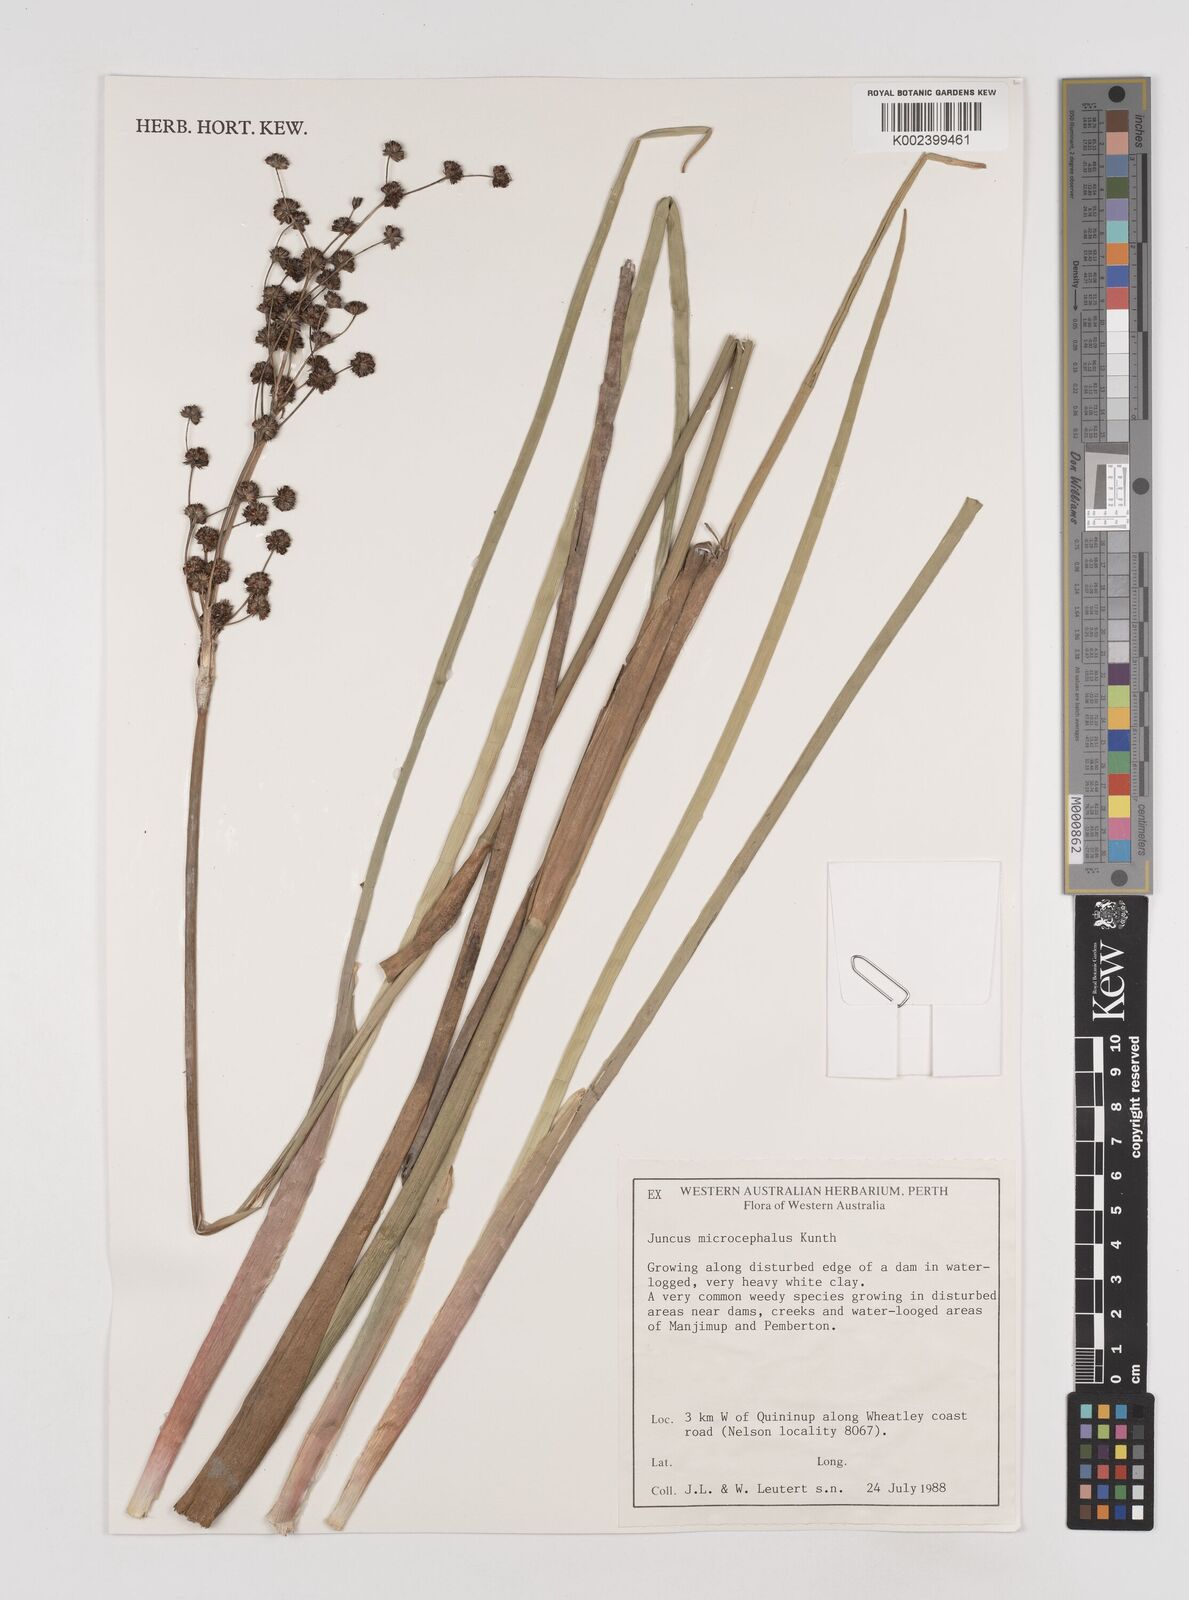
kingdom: Plantae
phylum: Tracheophyta
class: Liliopsida
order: Poales
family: Juncaceae
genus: Juncus
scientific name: Juncus microcephalus
